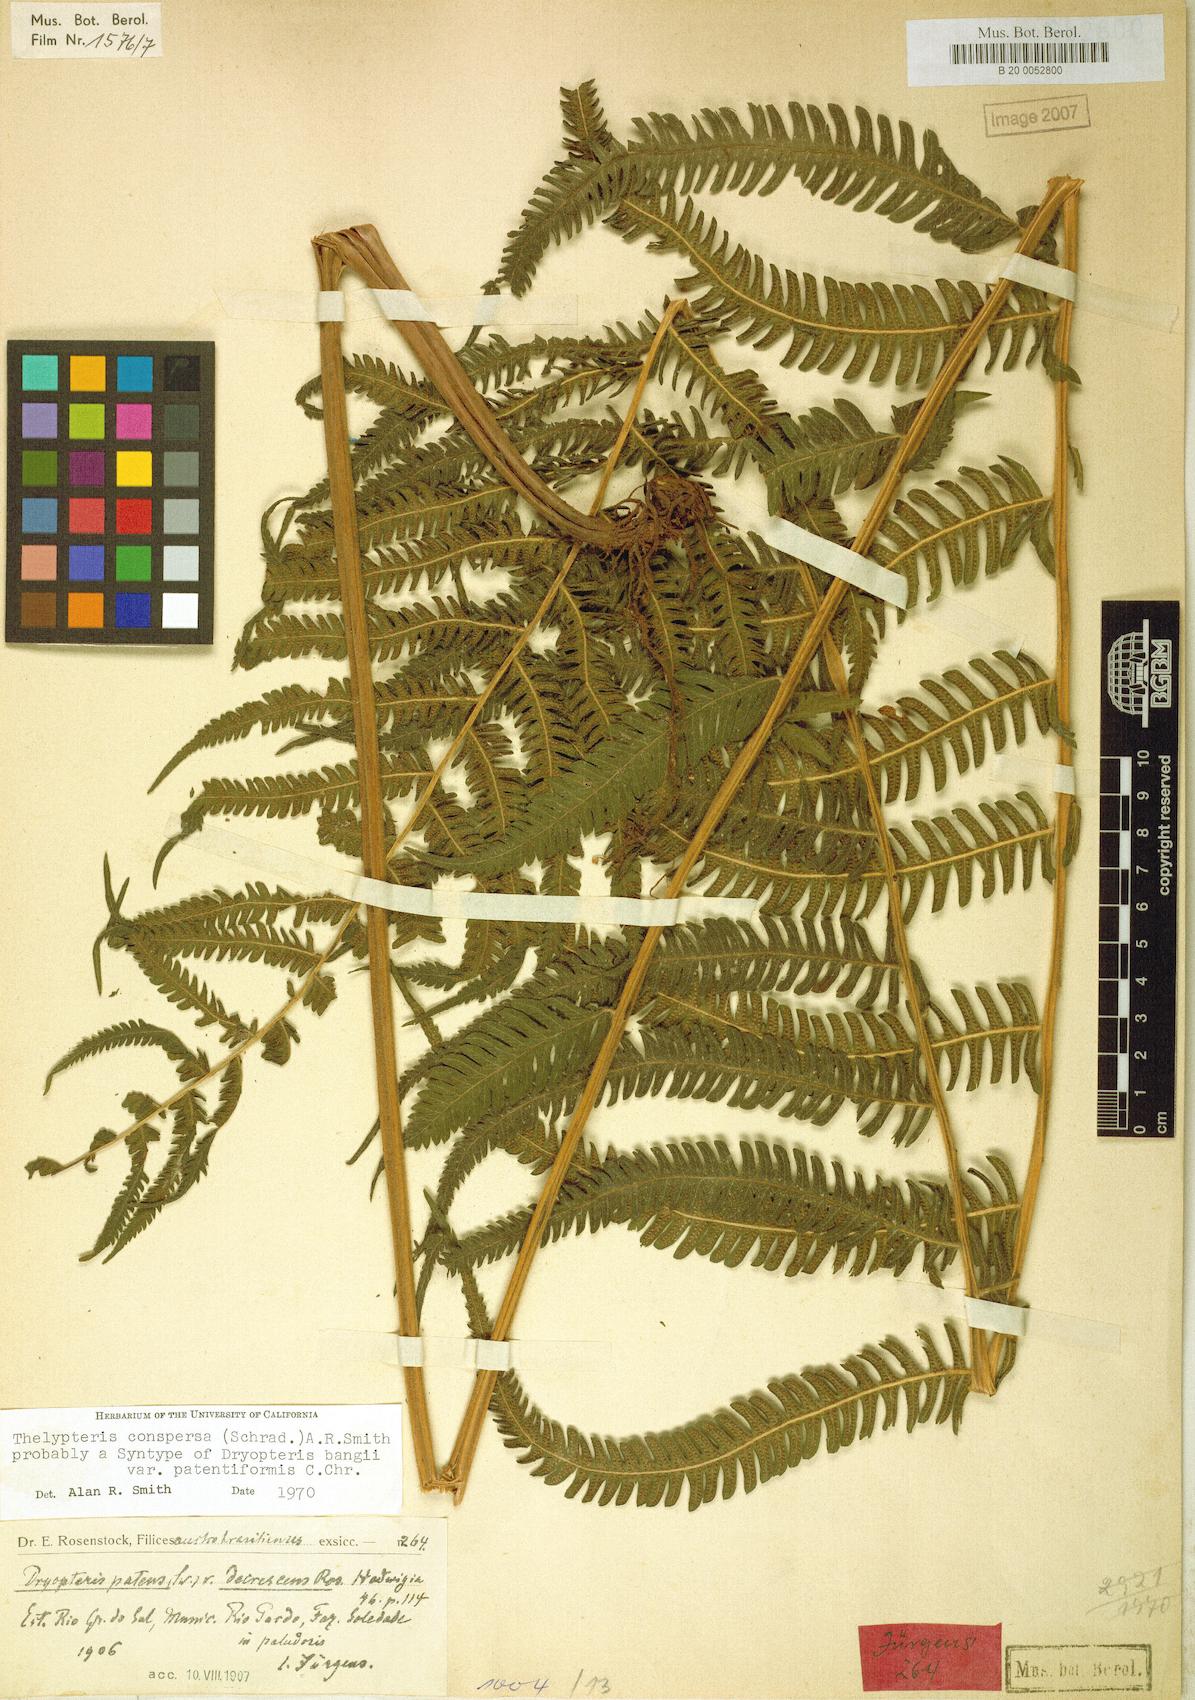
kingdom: Plantae
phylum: Tracheophyta
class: Polypodiopsida
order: Polypodiales
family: Thelypteridaceae
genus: Christella
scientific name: Christella conspersa
